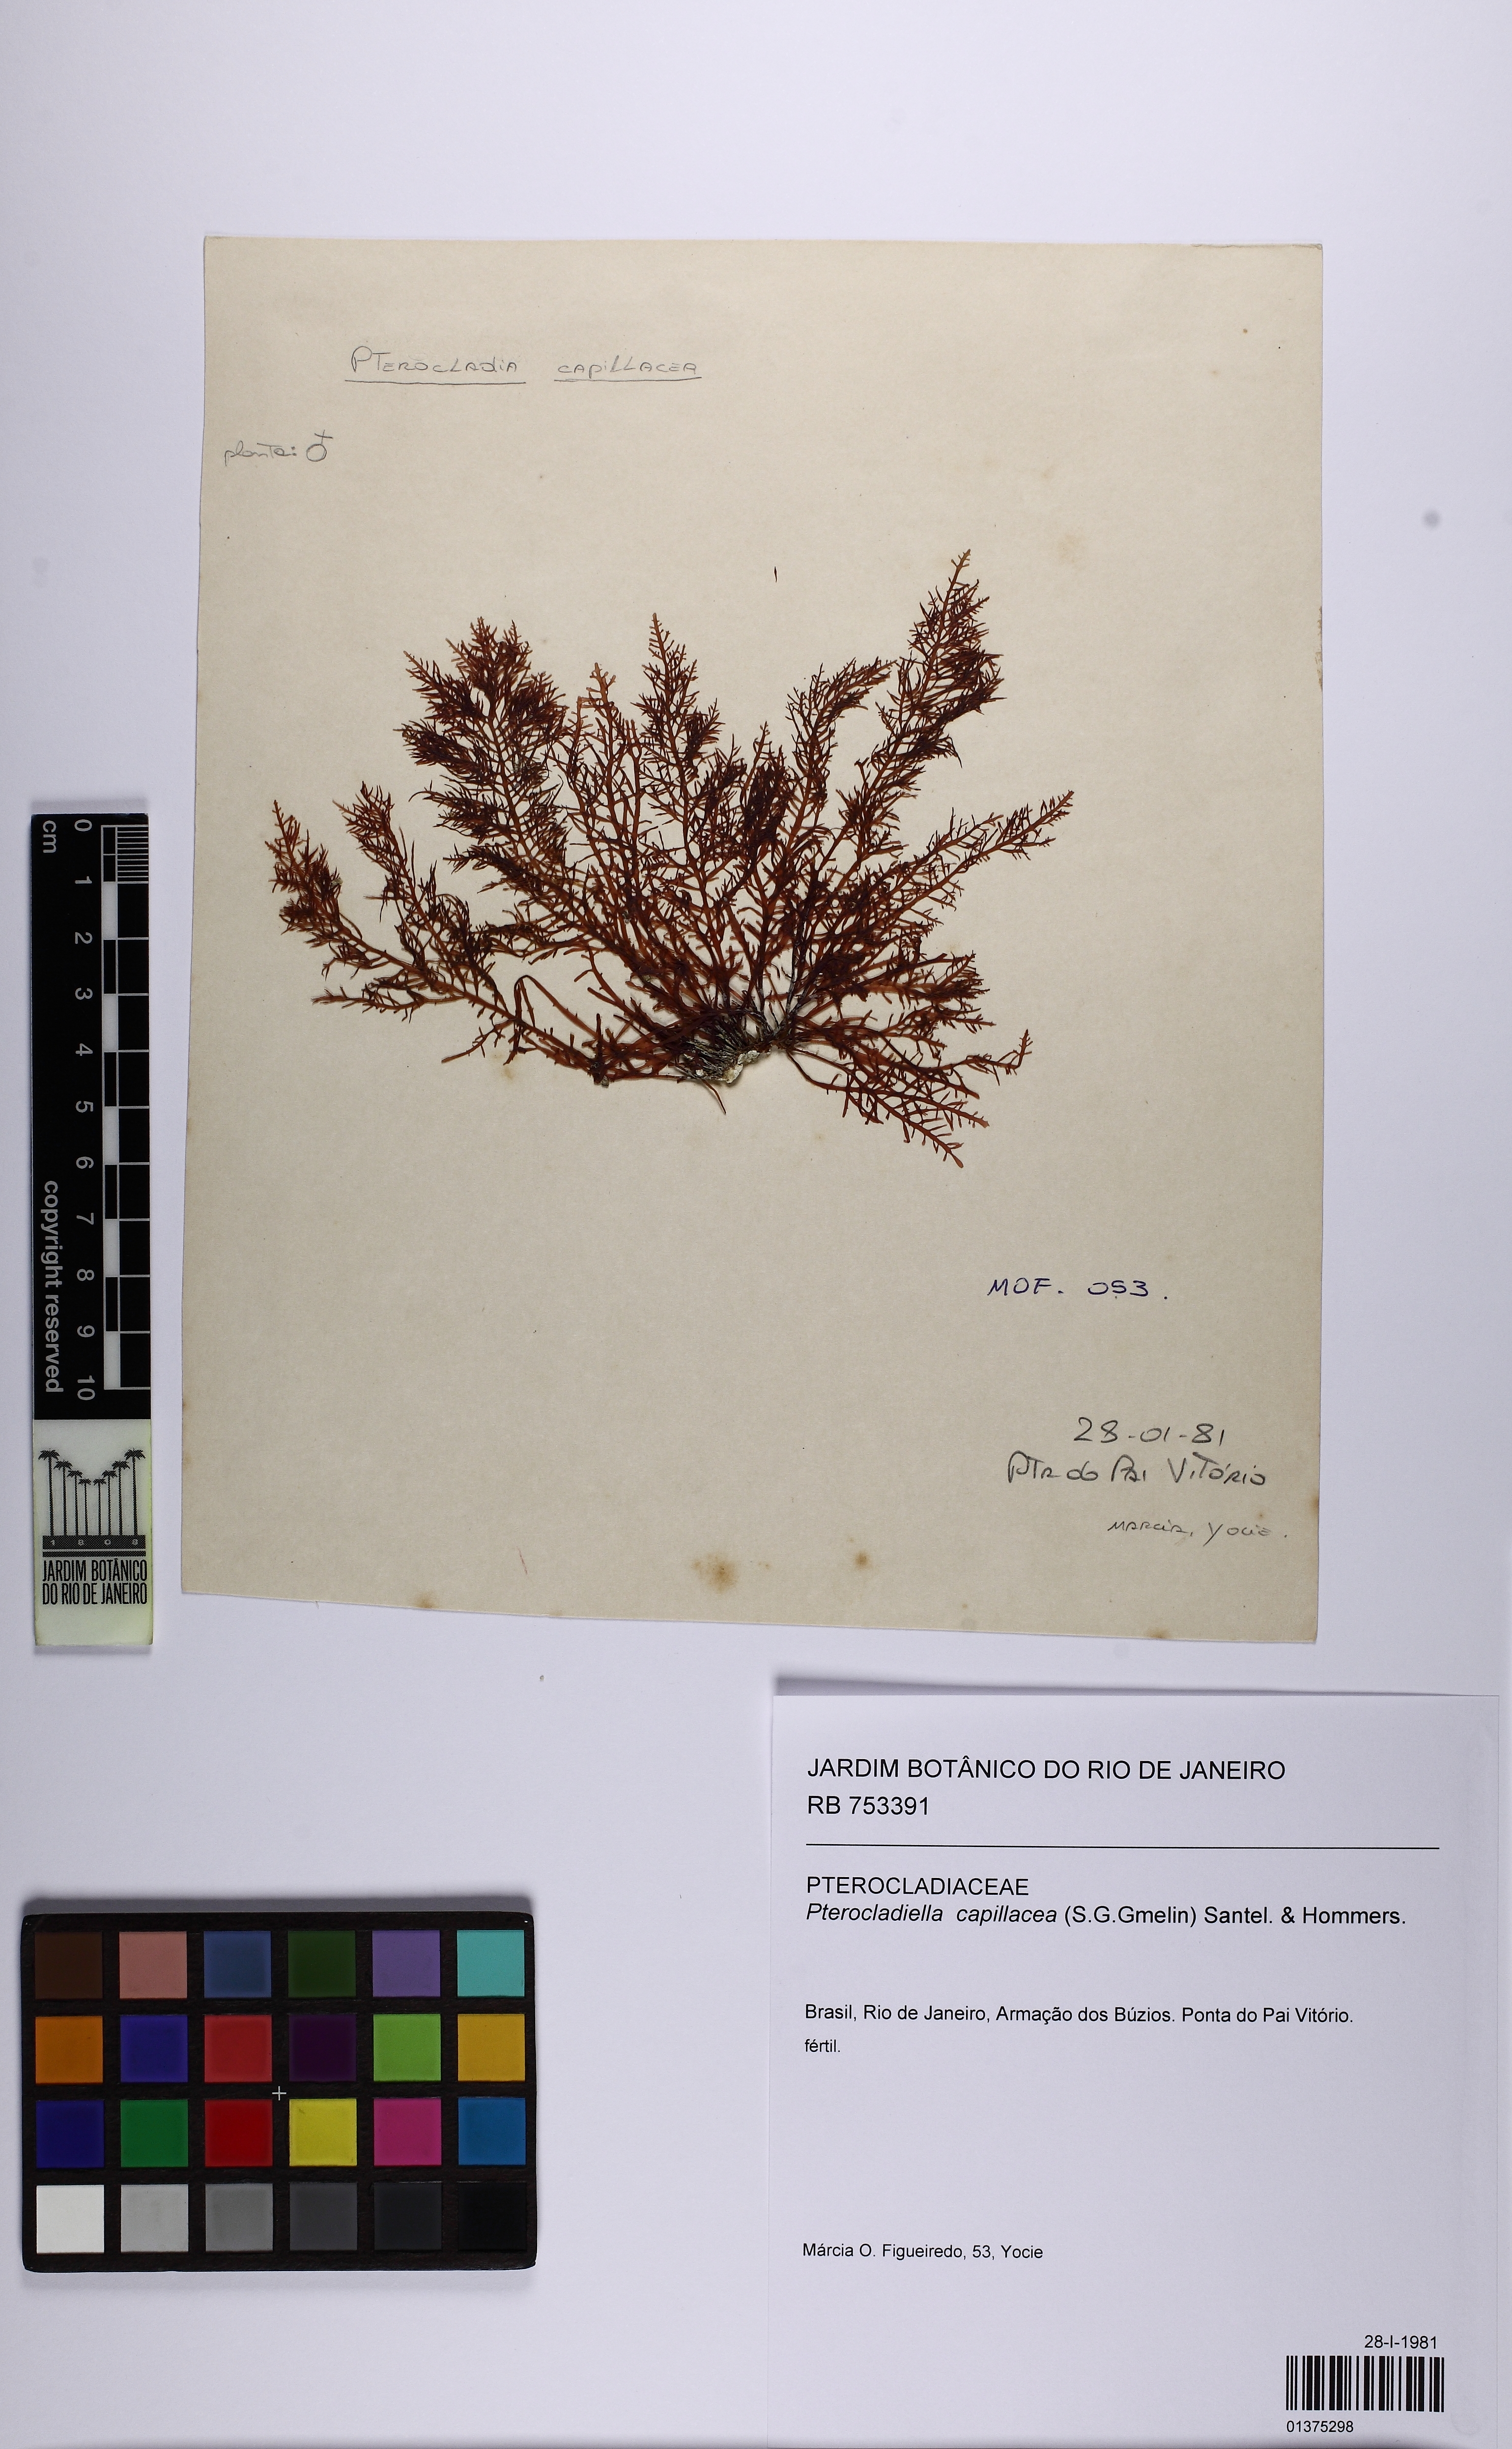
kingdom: Plantae
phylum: Rhodophyta
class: Florideophyceae
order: Gelidiales
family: Pterocladiaceae
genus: Pterocladiella
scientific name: Pterocladiella capillacea
